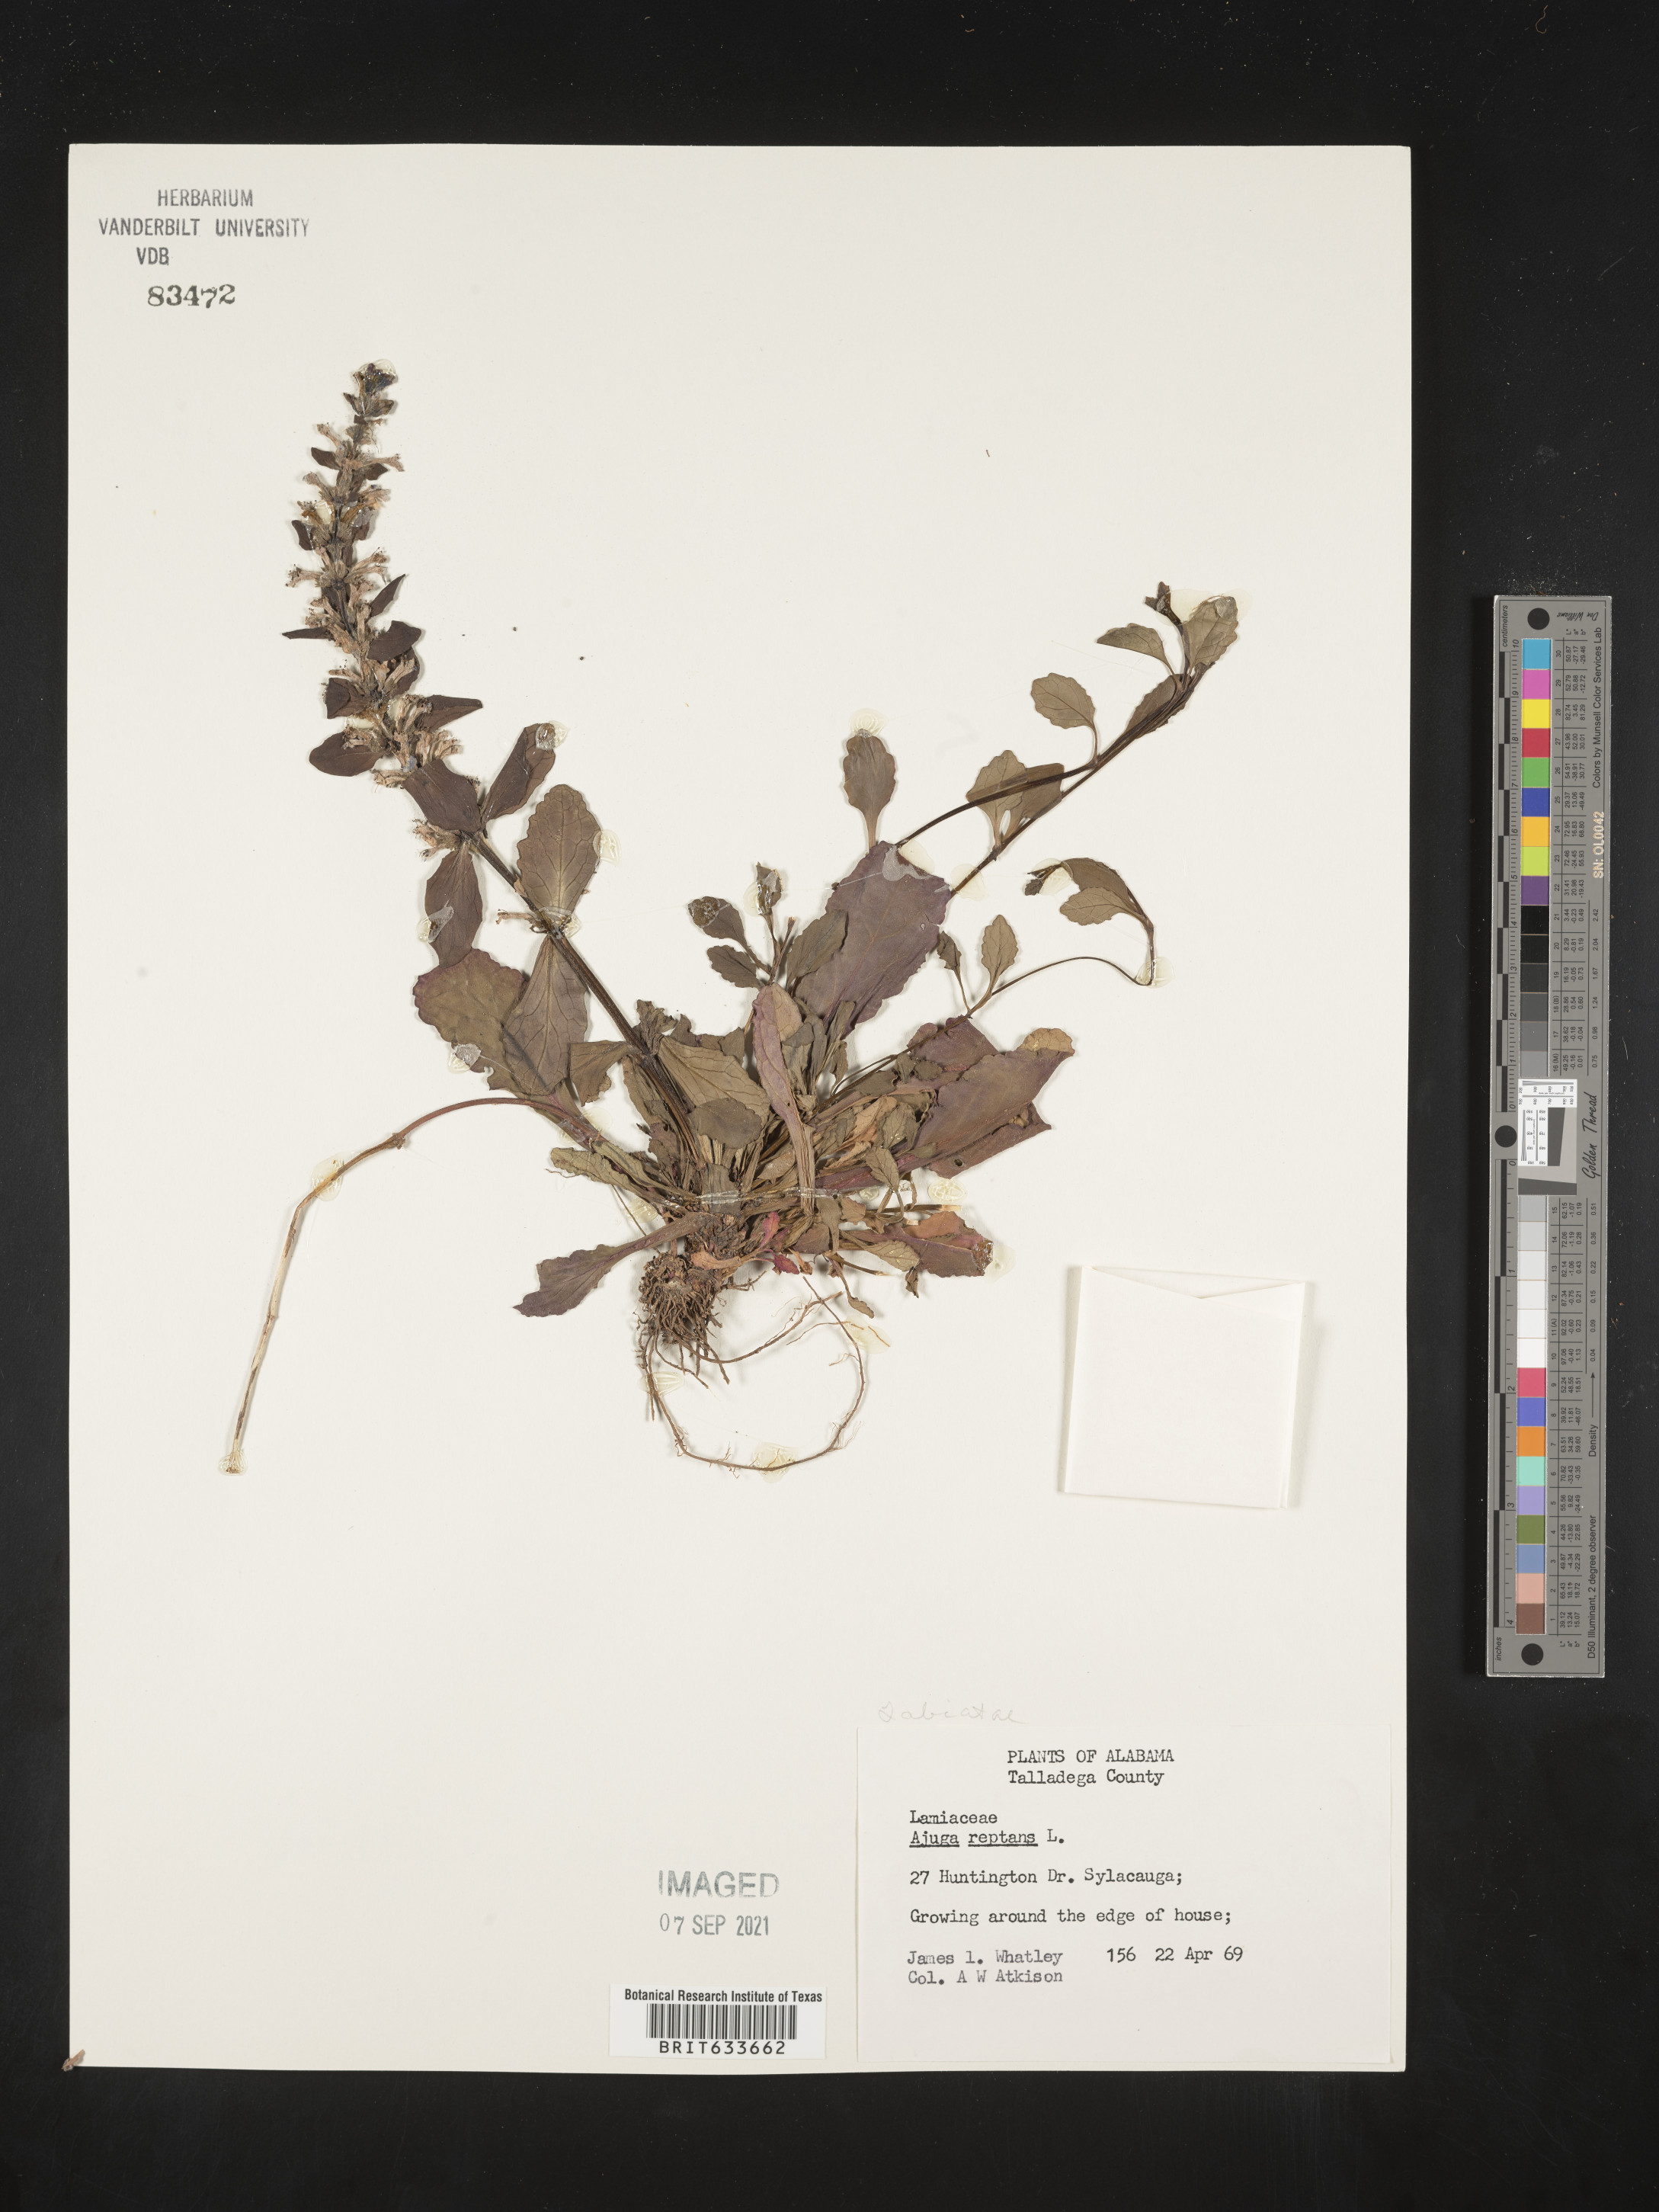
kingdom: Plantae
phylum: Tracheophyta
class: Magnoliopsida
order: Lamiales
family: Lamiaceae
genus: Ajuga
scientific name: Ajuga
